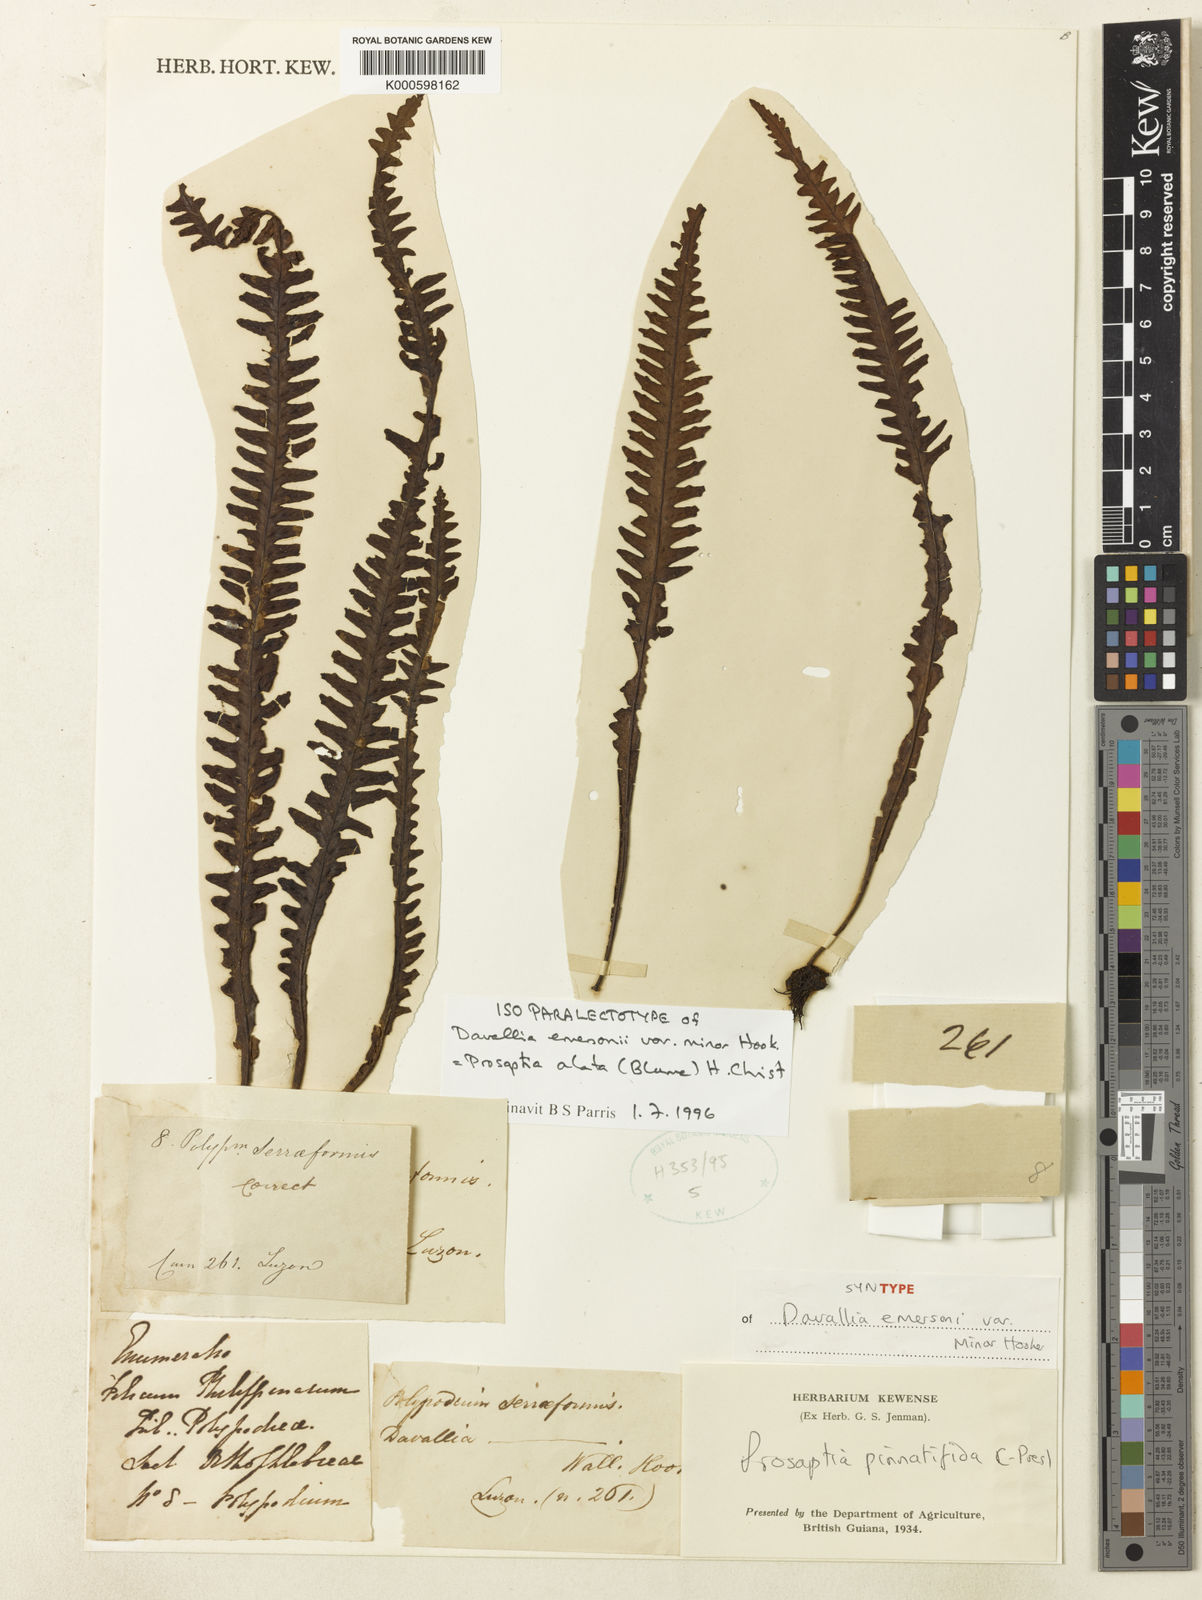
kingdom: Plantae
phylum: Tracheophyta
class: Polypodiopsida
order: Polypodiales
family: Polypodiaceae
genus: Prosaptia
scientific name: Prosaptia alata
